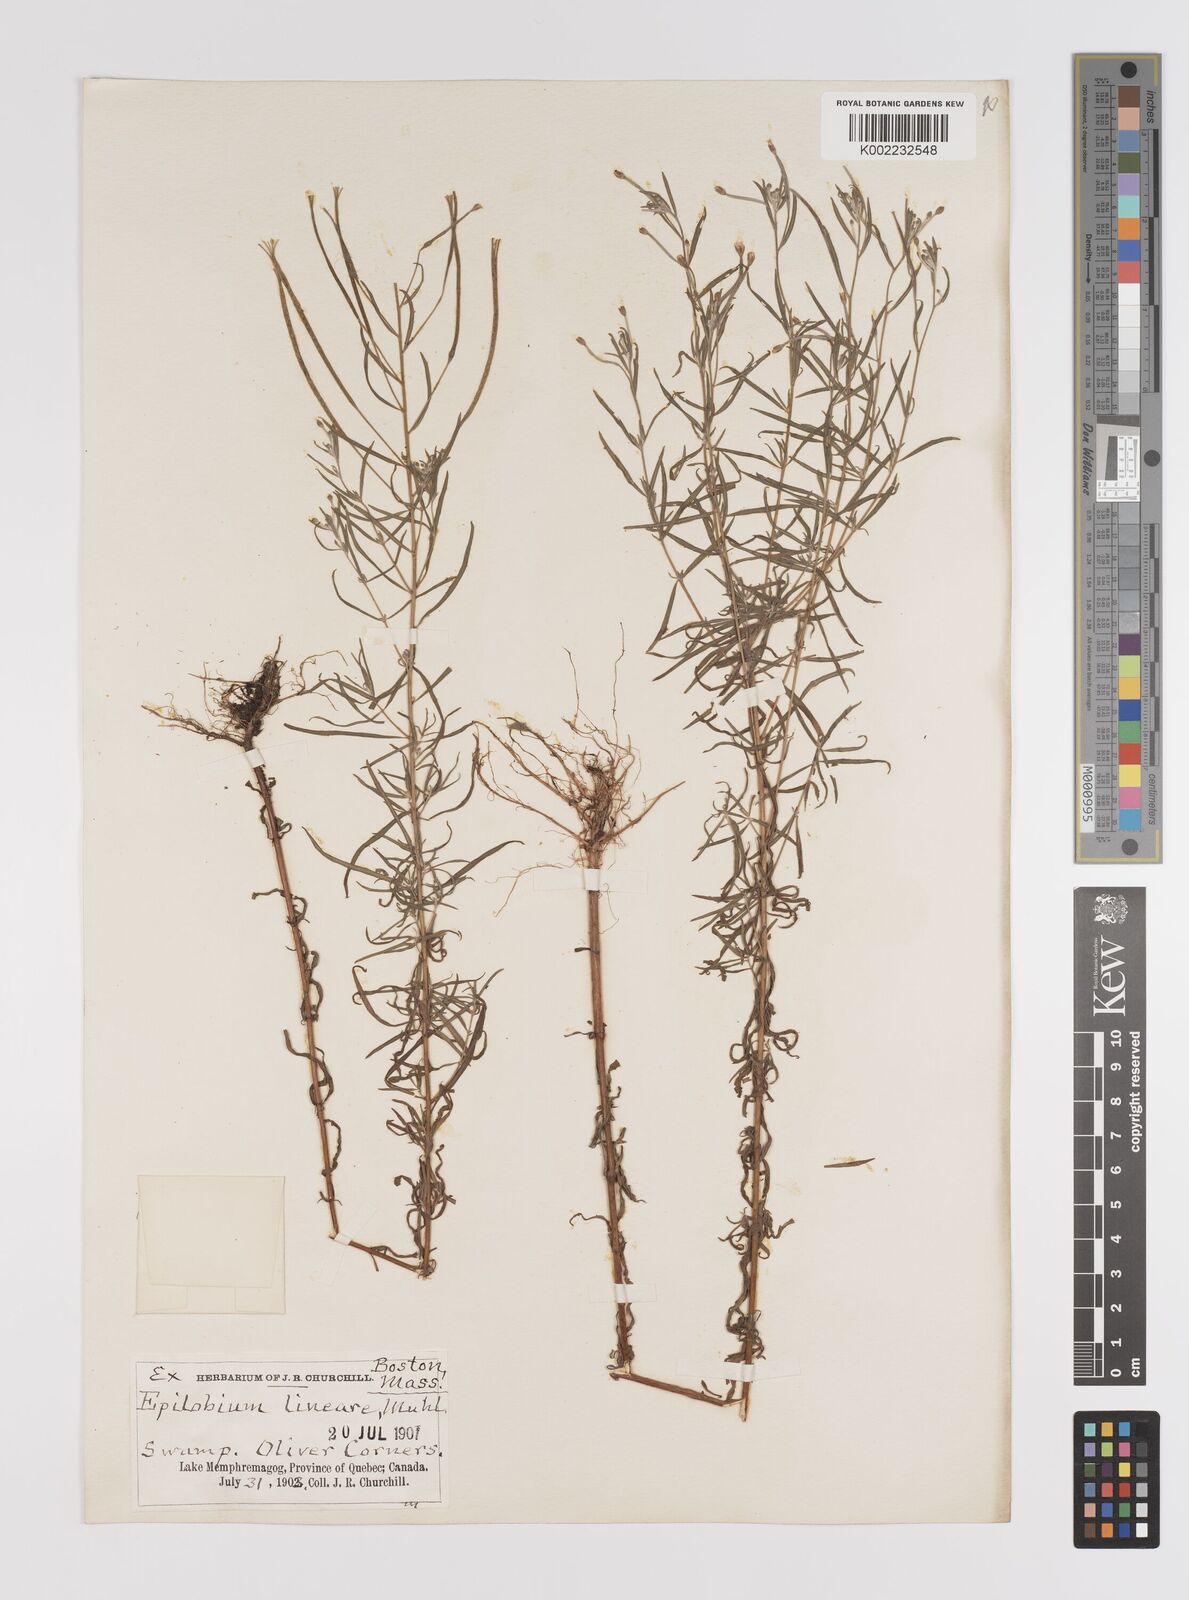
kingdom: Plantae
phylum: Tracheophyta
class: Magnoliopsida
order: Myrtales
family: Onagraceae
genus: Epilobium
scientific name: Epilobium palustre
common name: Marsh willowherb
